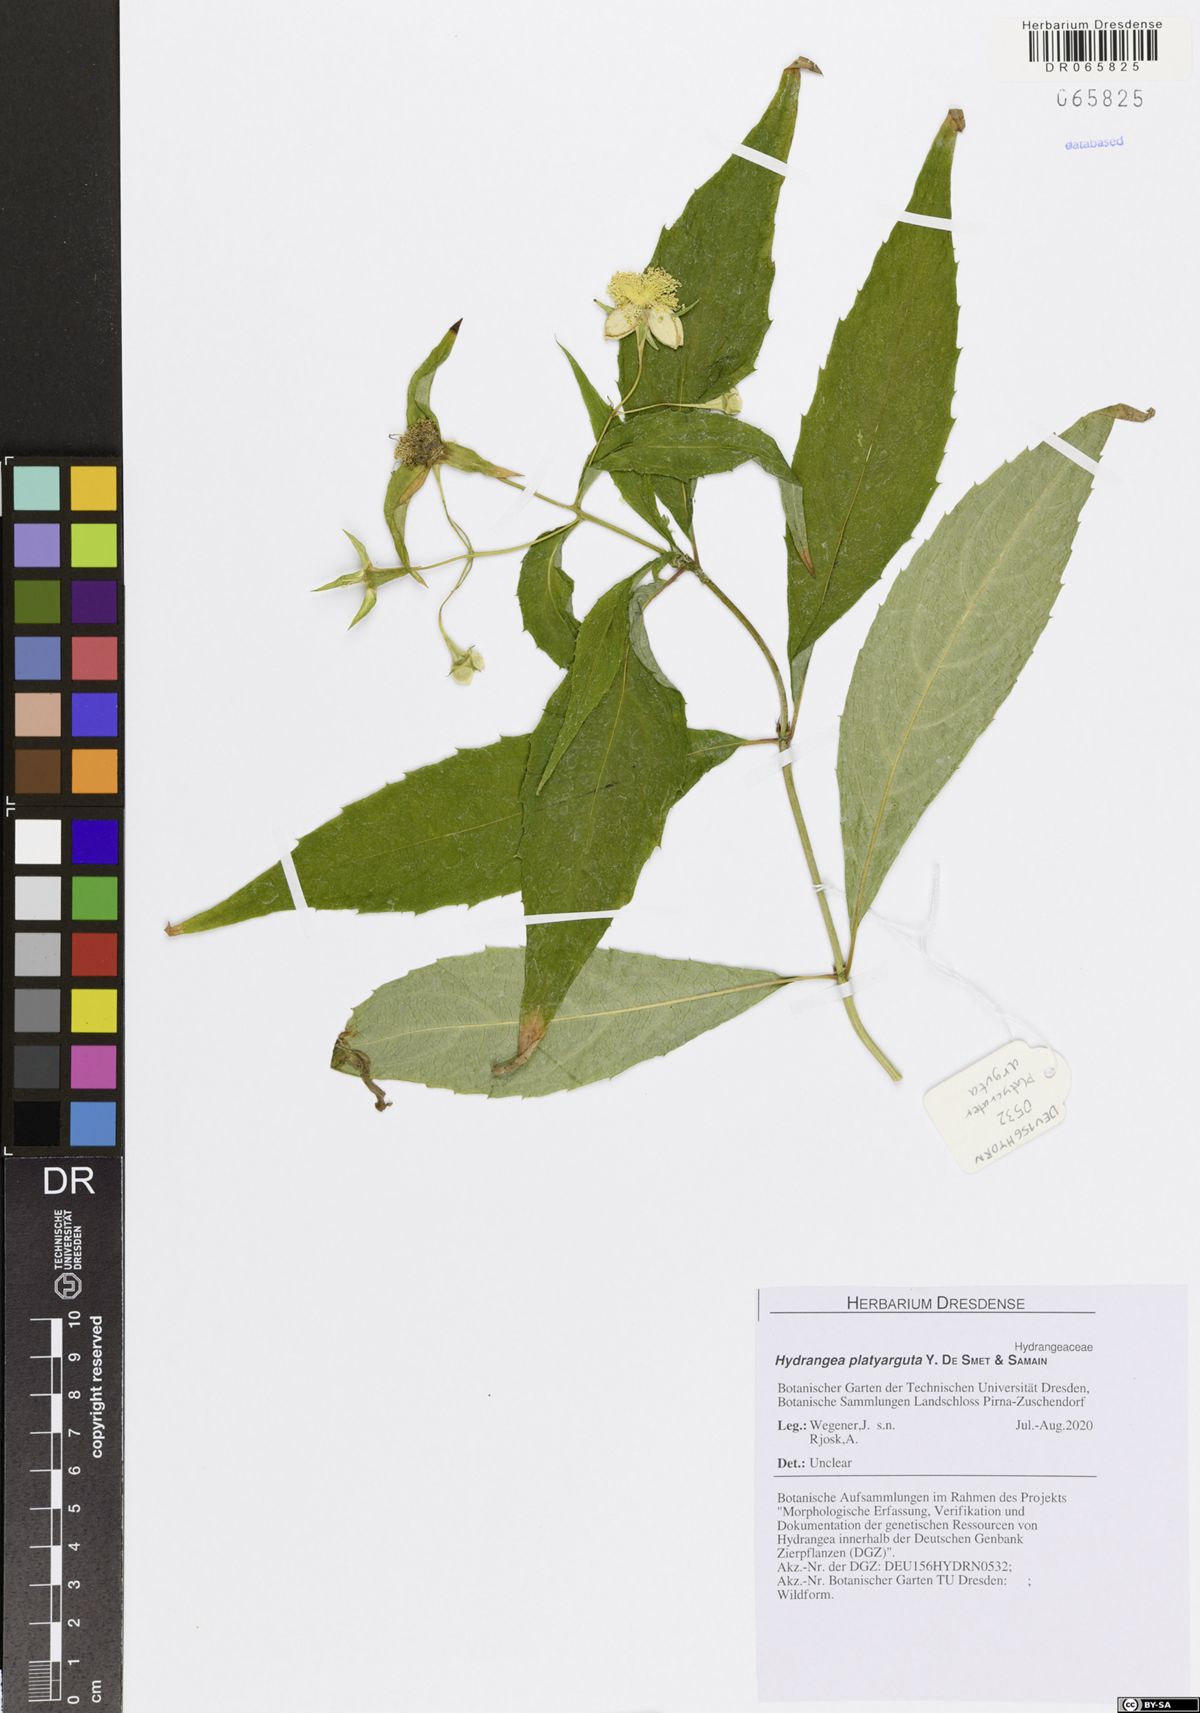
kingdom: Plantae
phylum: Tracheophyta
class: Magnoliopsida
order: Cornales
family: Hydrangeaceae
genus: Hydrangea
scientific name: Hydrangea platyarguta
